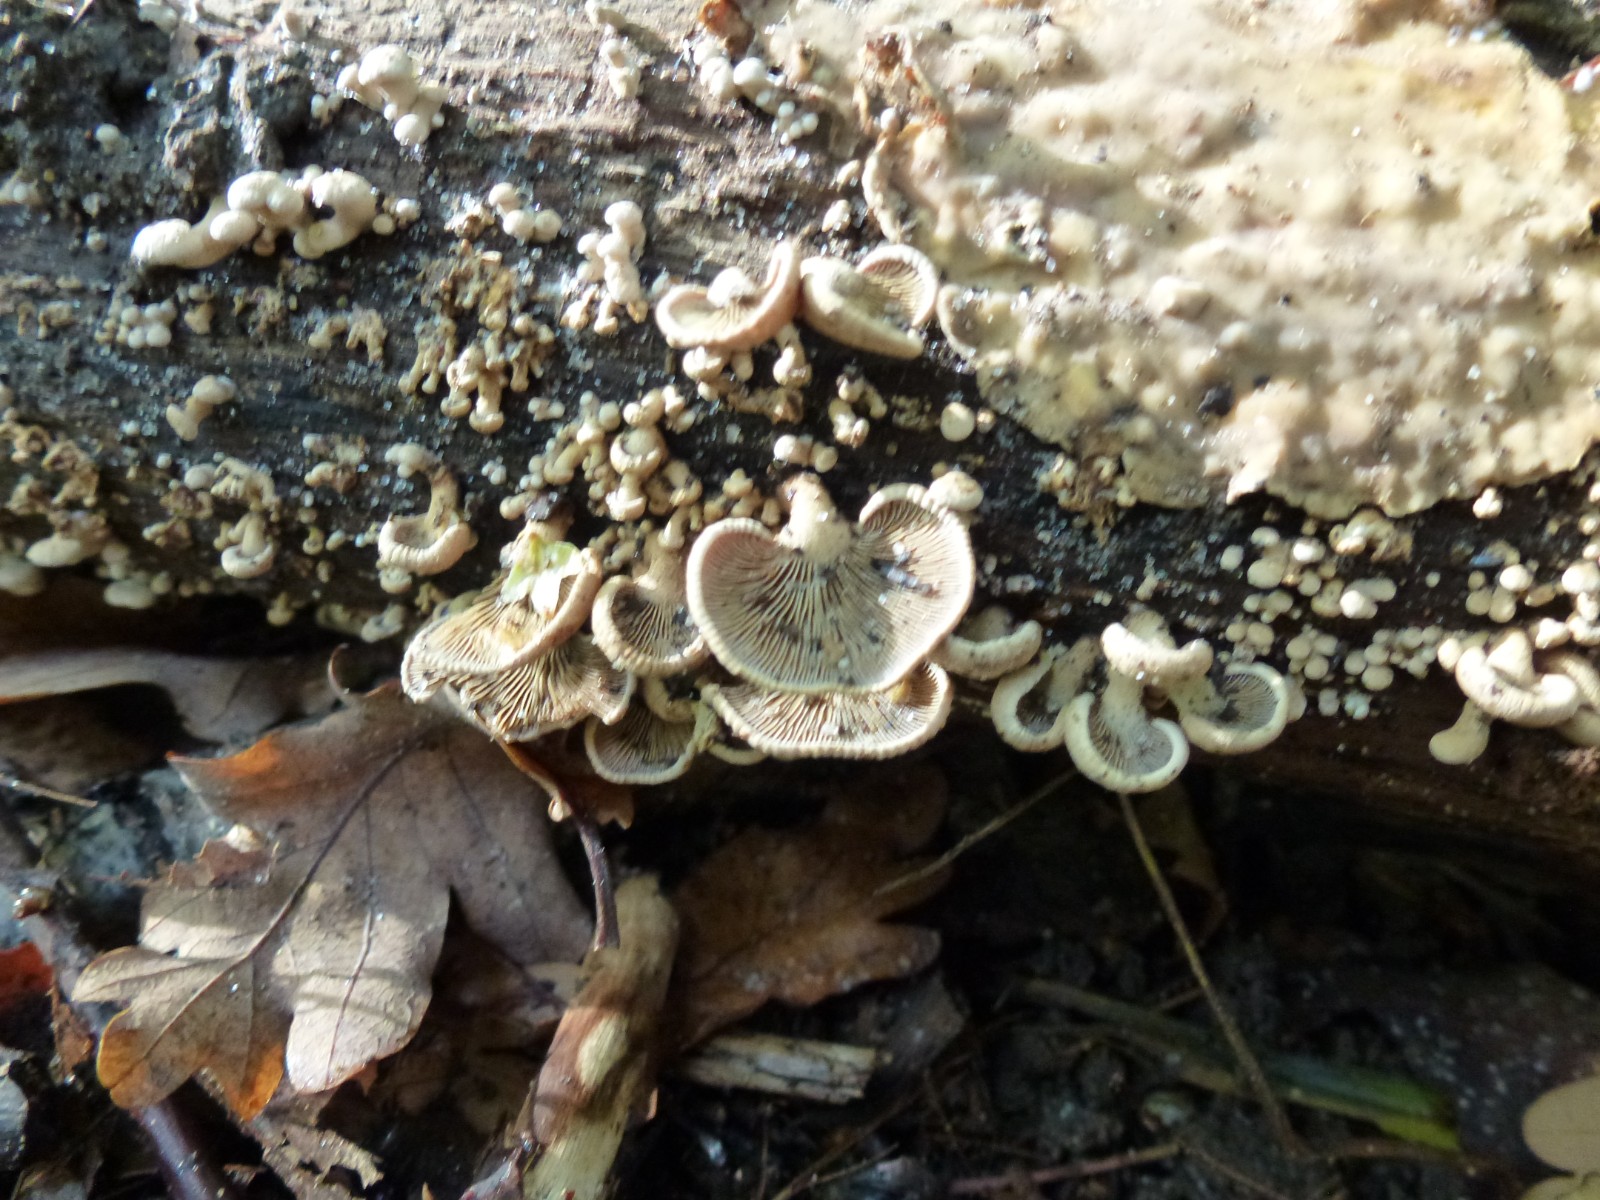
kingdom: Fungi
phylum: Basidiomycota
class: Agaricomycetes
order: Agaricales
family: Mycenaceae
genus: Panellus
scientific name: Panellus stipticus
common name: kliddet epaulethat
